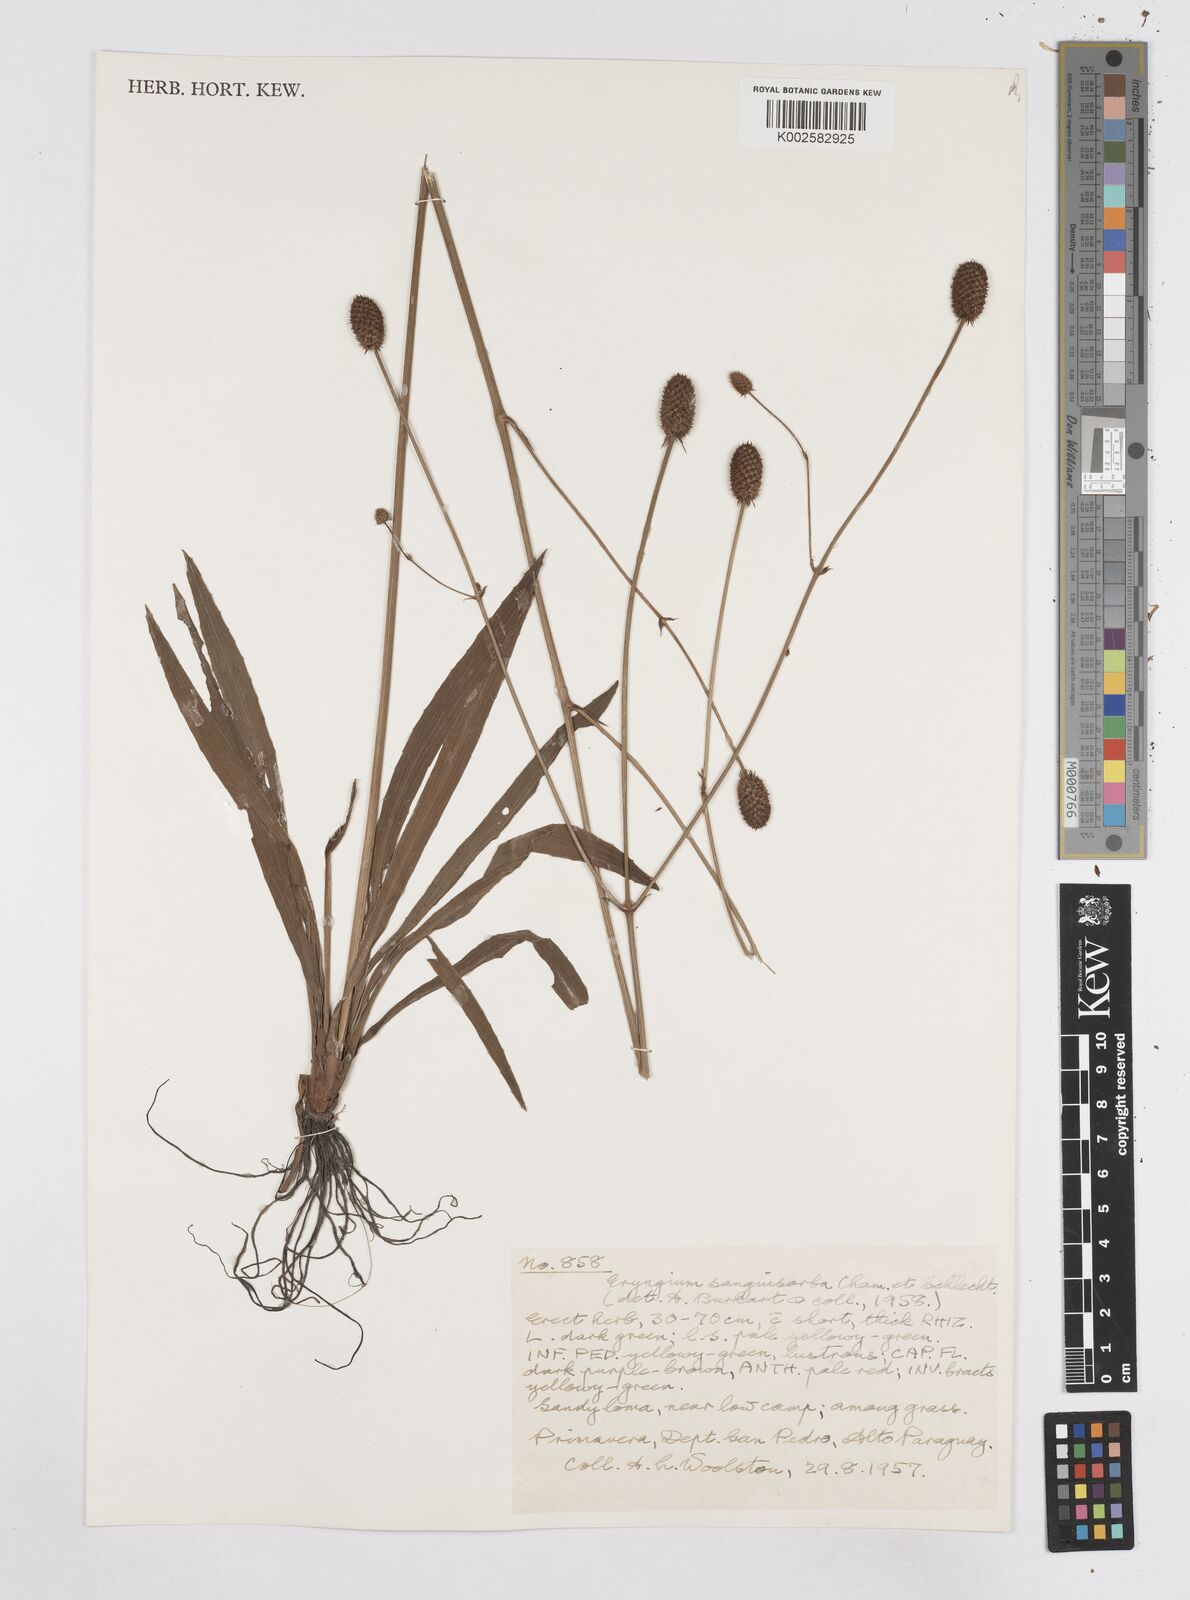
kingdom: Plantae
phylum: Tracheophyta
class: Magnoliopsida
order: Apiales
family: Apiaceae
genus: Eryngium
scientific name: Eryngium sanguisorba
